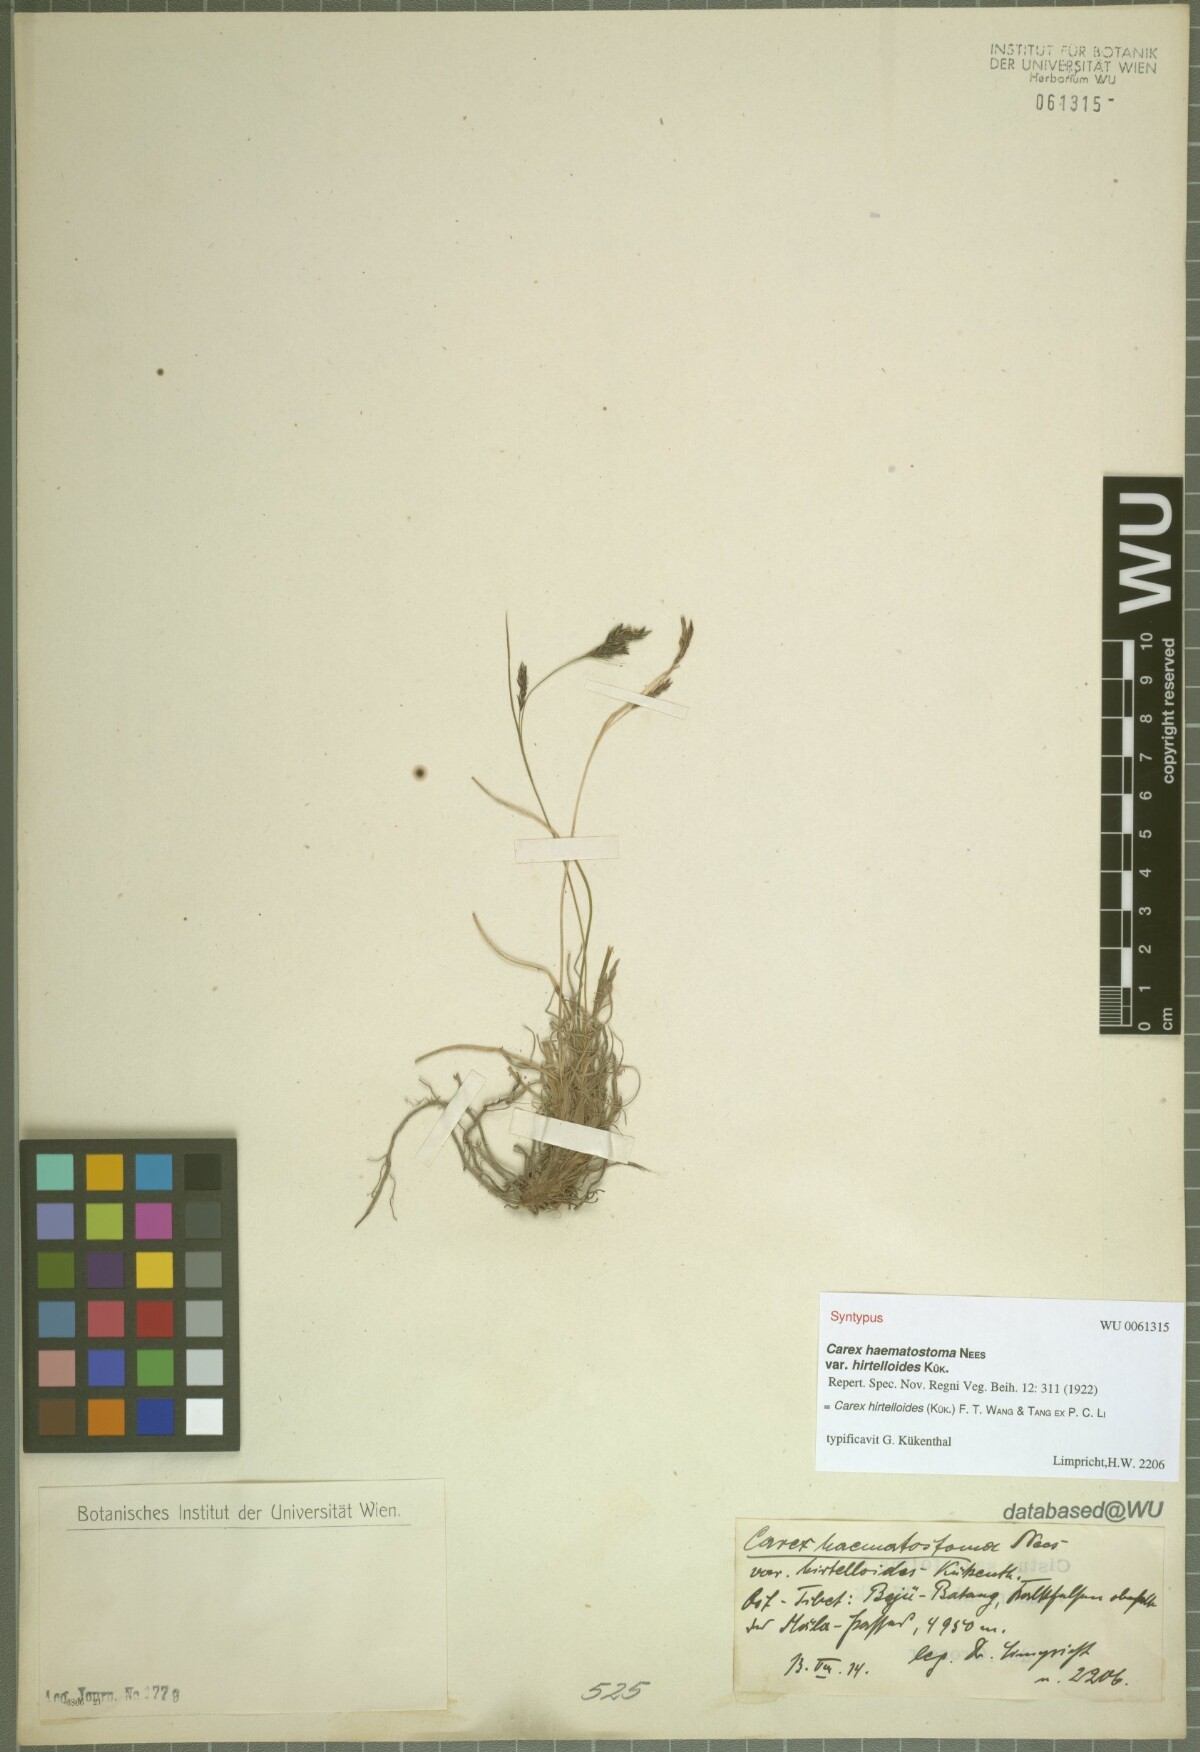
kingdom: Plantae
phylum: Tracheophyta
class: Liliopsida
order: Poales
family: Cyperaceae
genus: Carex
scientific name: Carex hirtelloides
